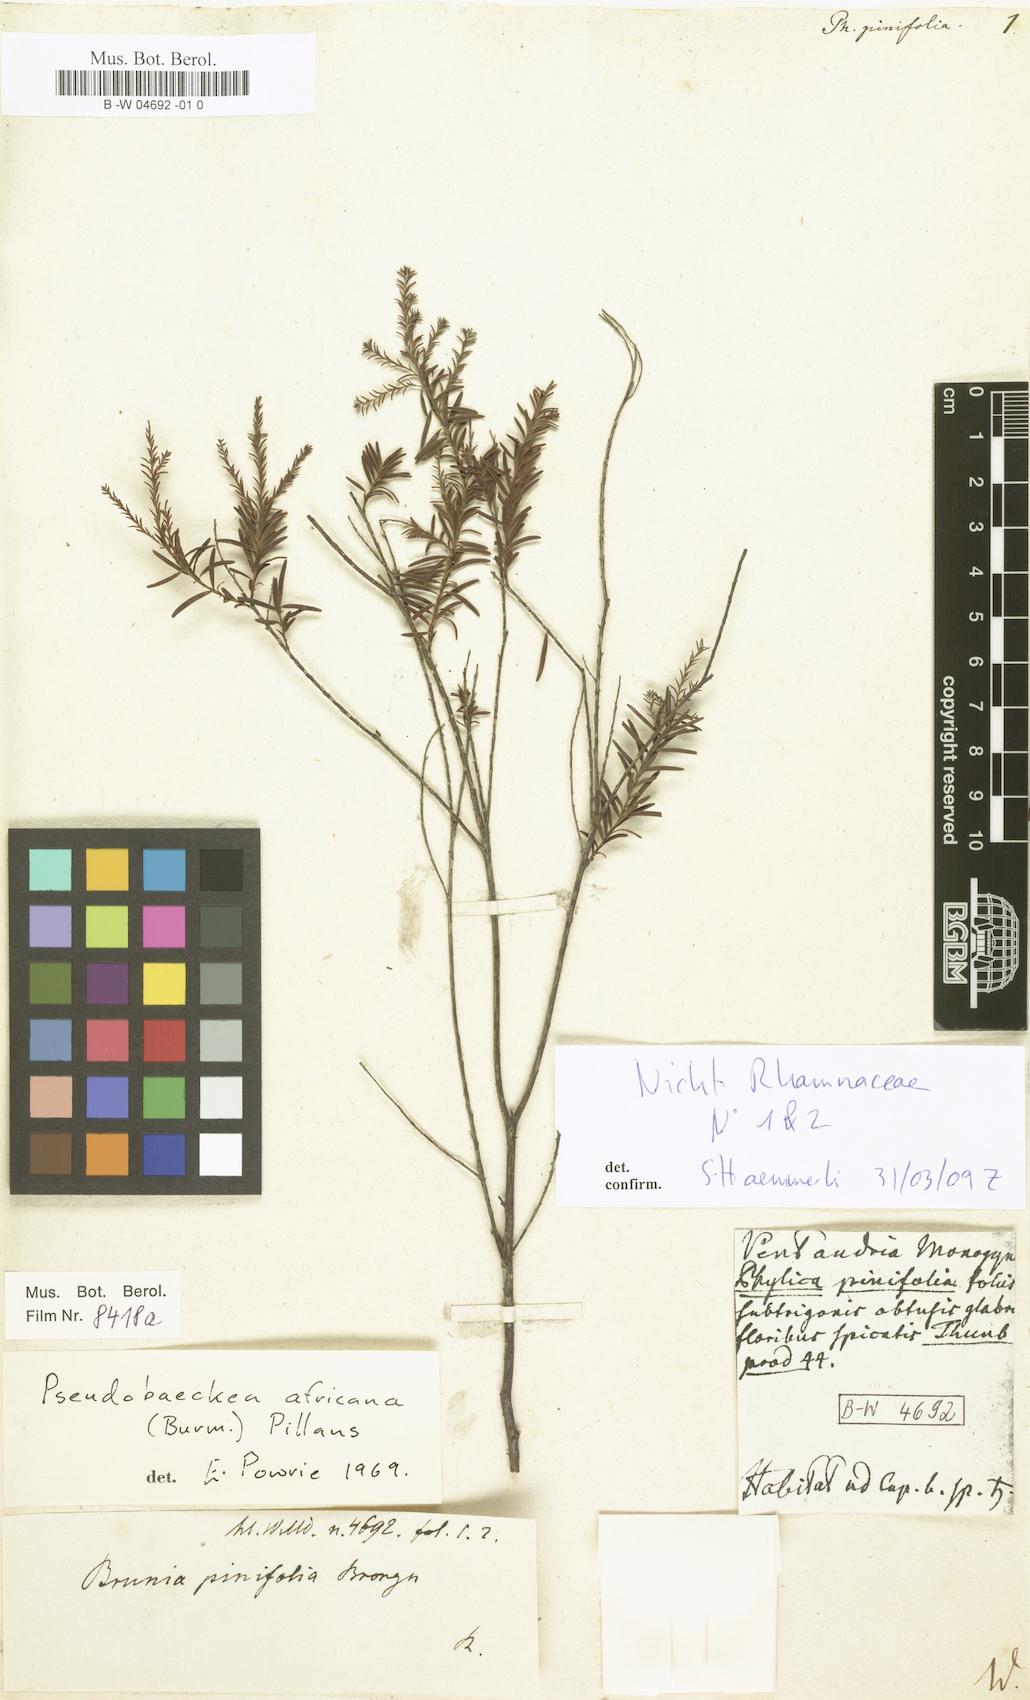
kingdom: Plantae
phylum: Tracheophyta
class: Magnoliopsida
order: Bruniales
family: Bruniaceae
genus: Brunia
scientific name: Brunia africana
